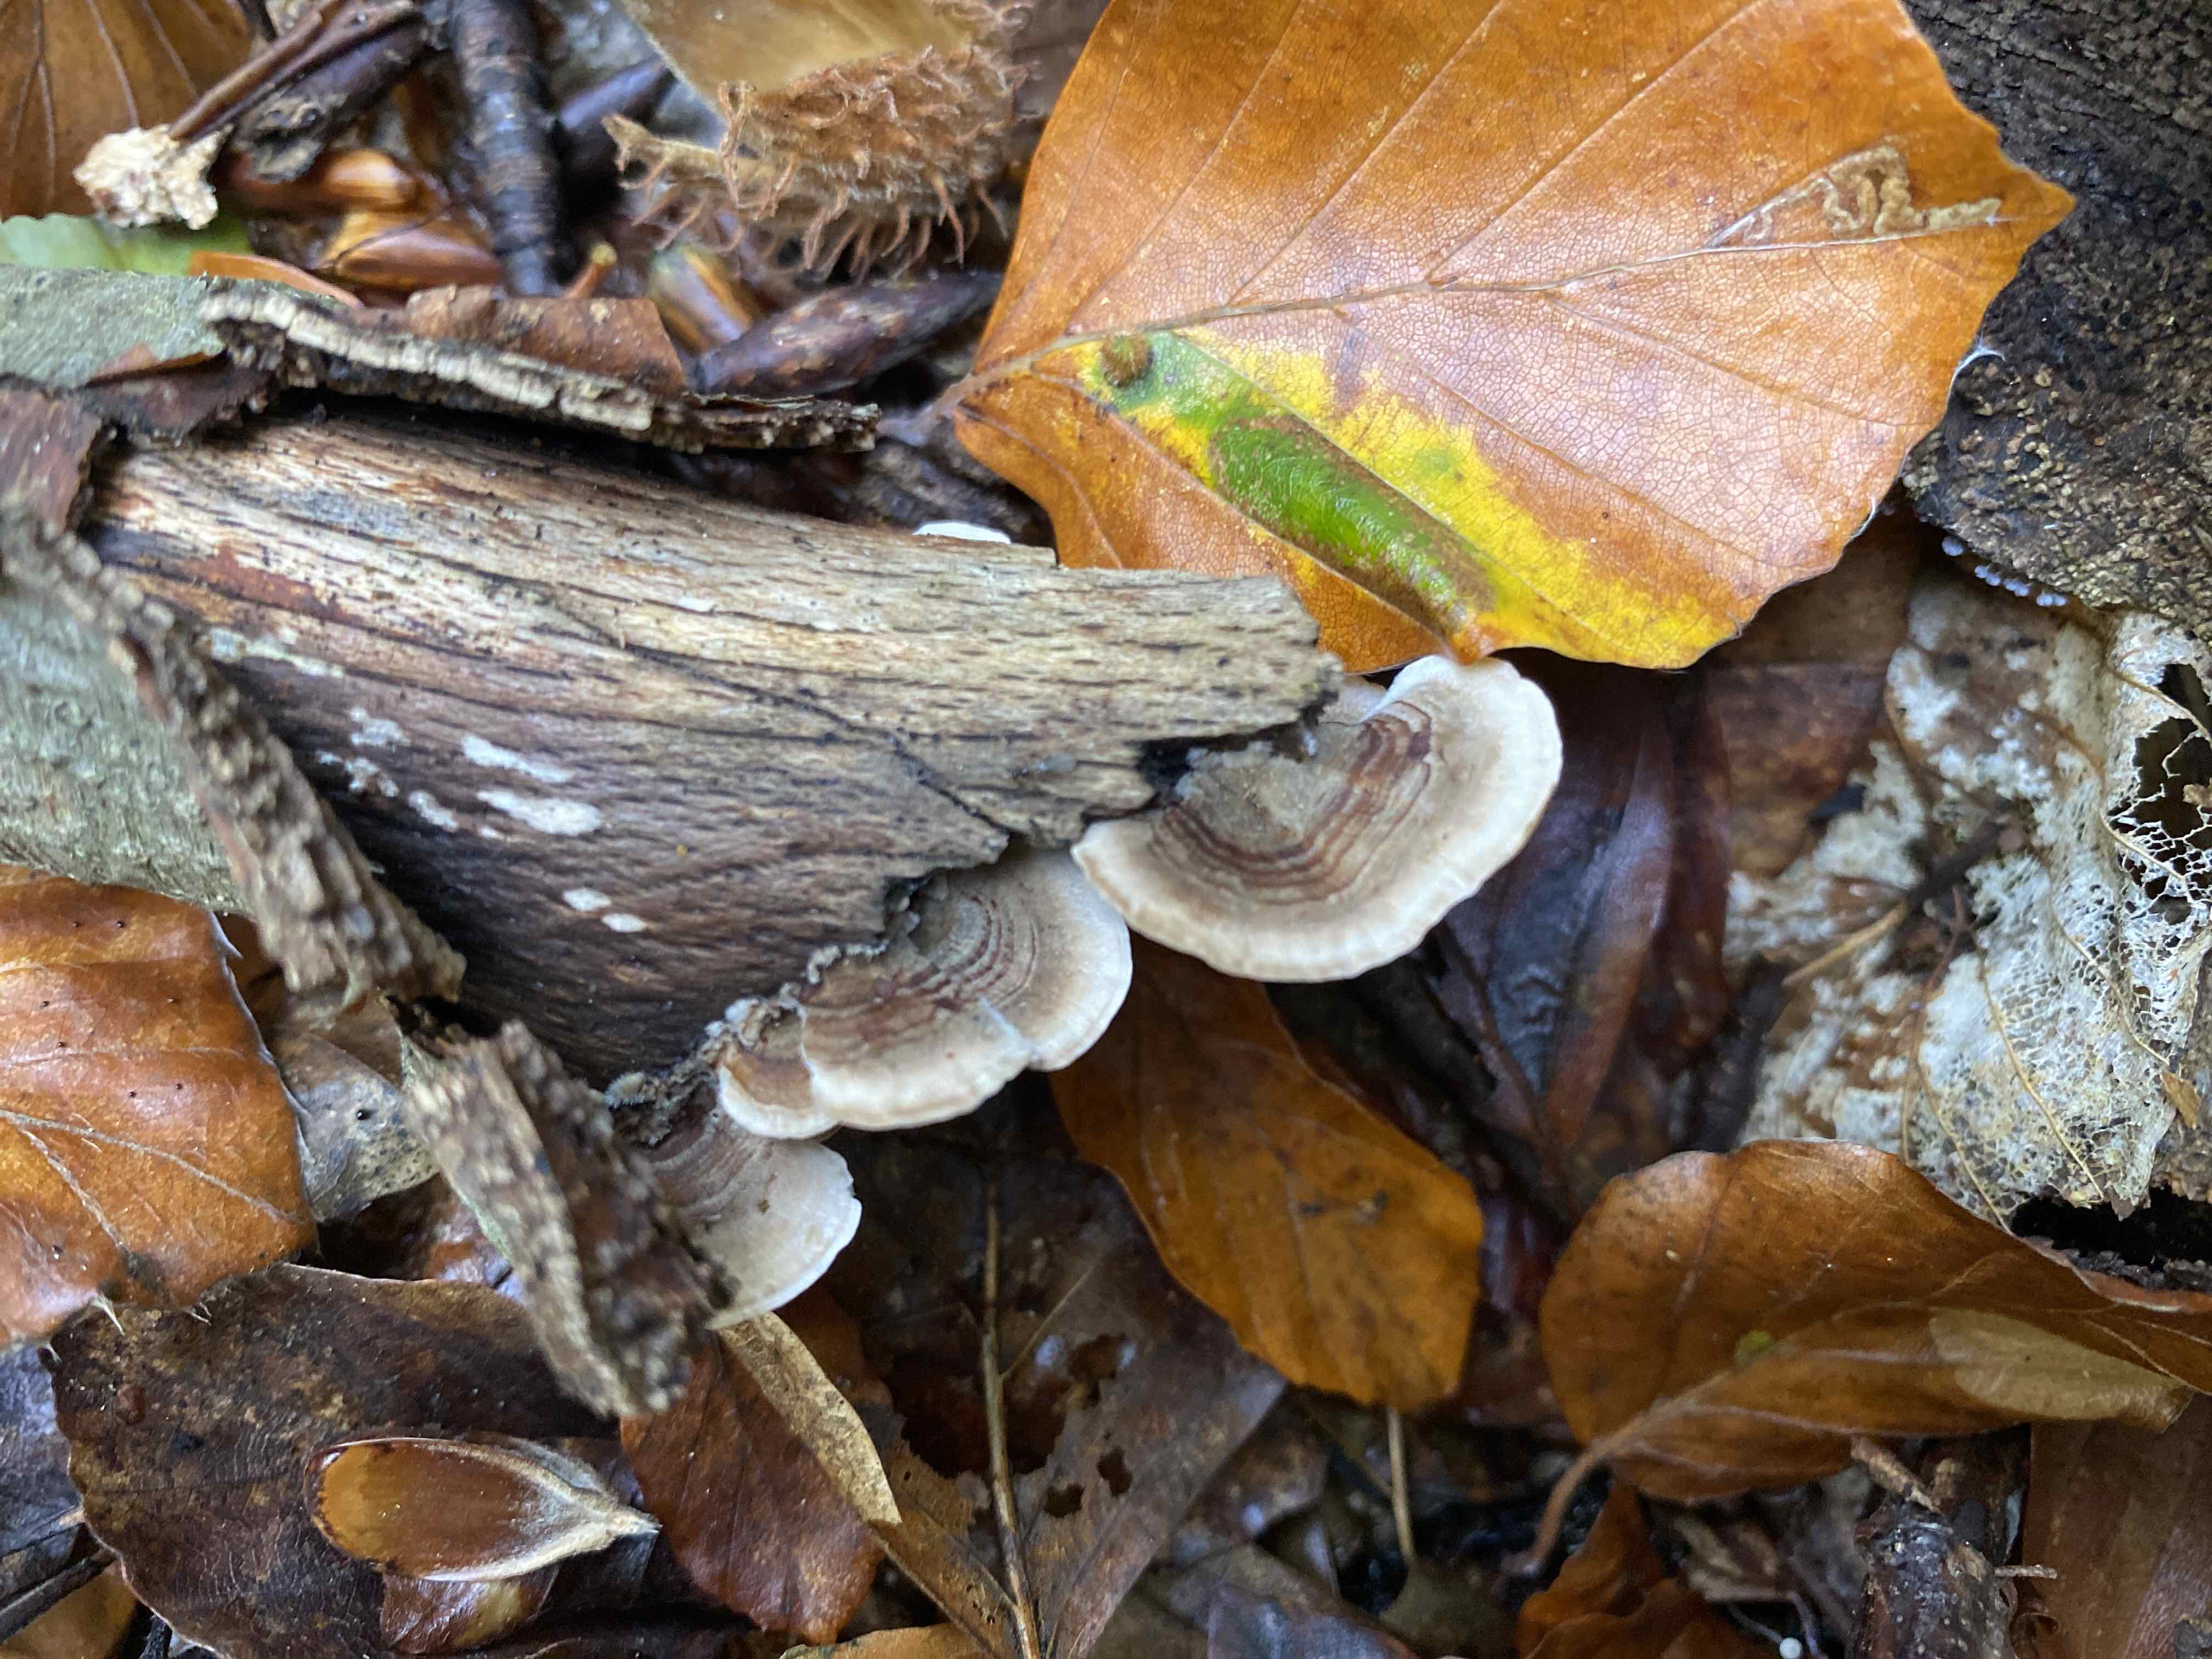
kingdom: Fungi
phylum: Basidiomycota
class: Agaricomycetes
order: Polyporales
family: Polyporaceae
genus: Trametes
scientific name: Trametes versicolor
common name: broget læderporesvamp
